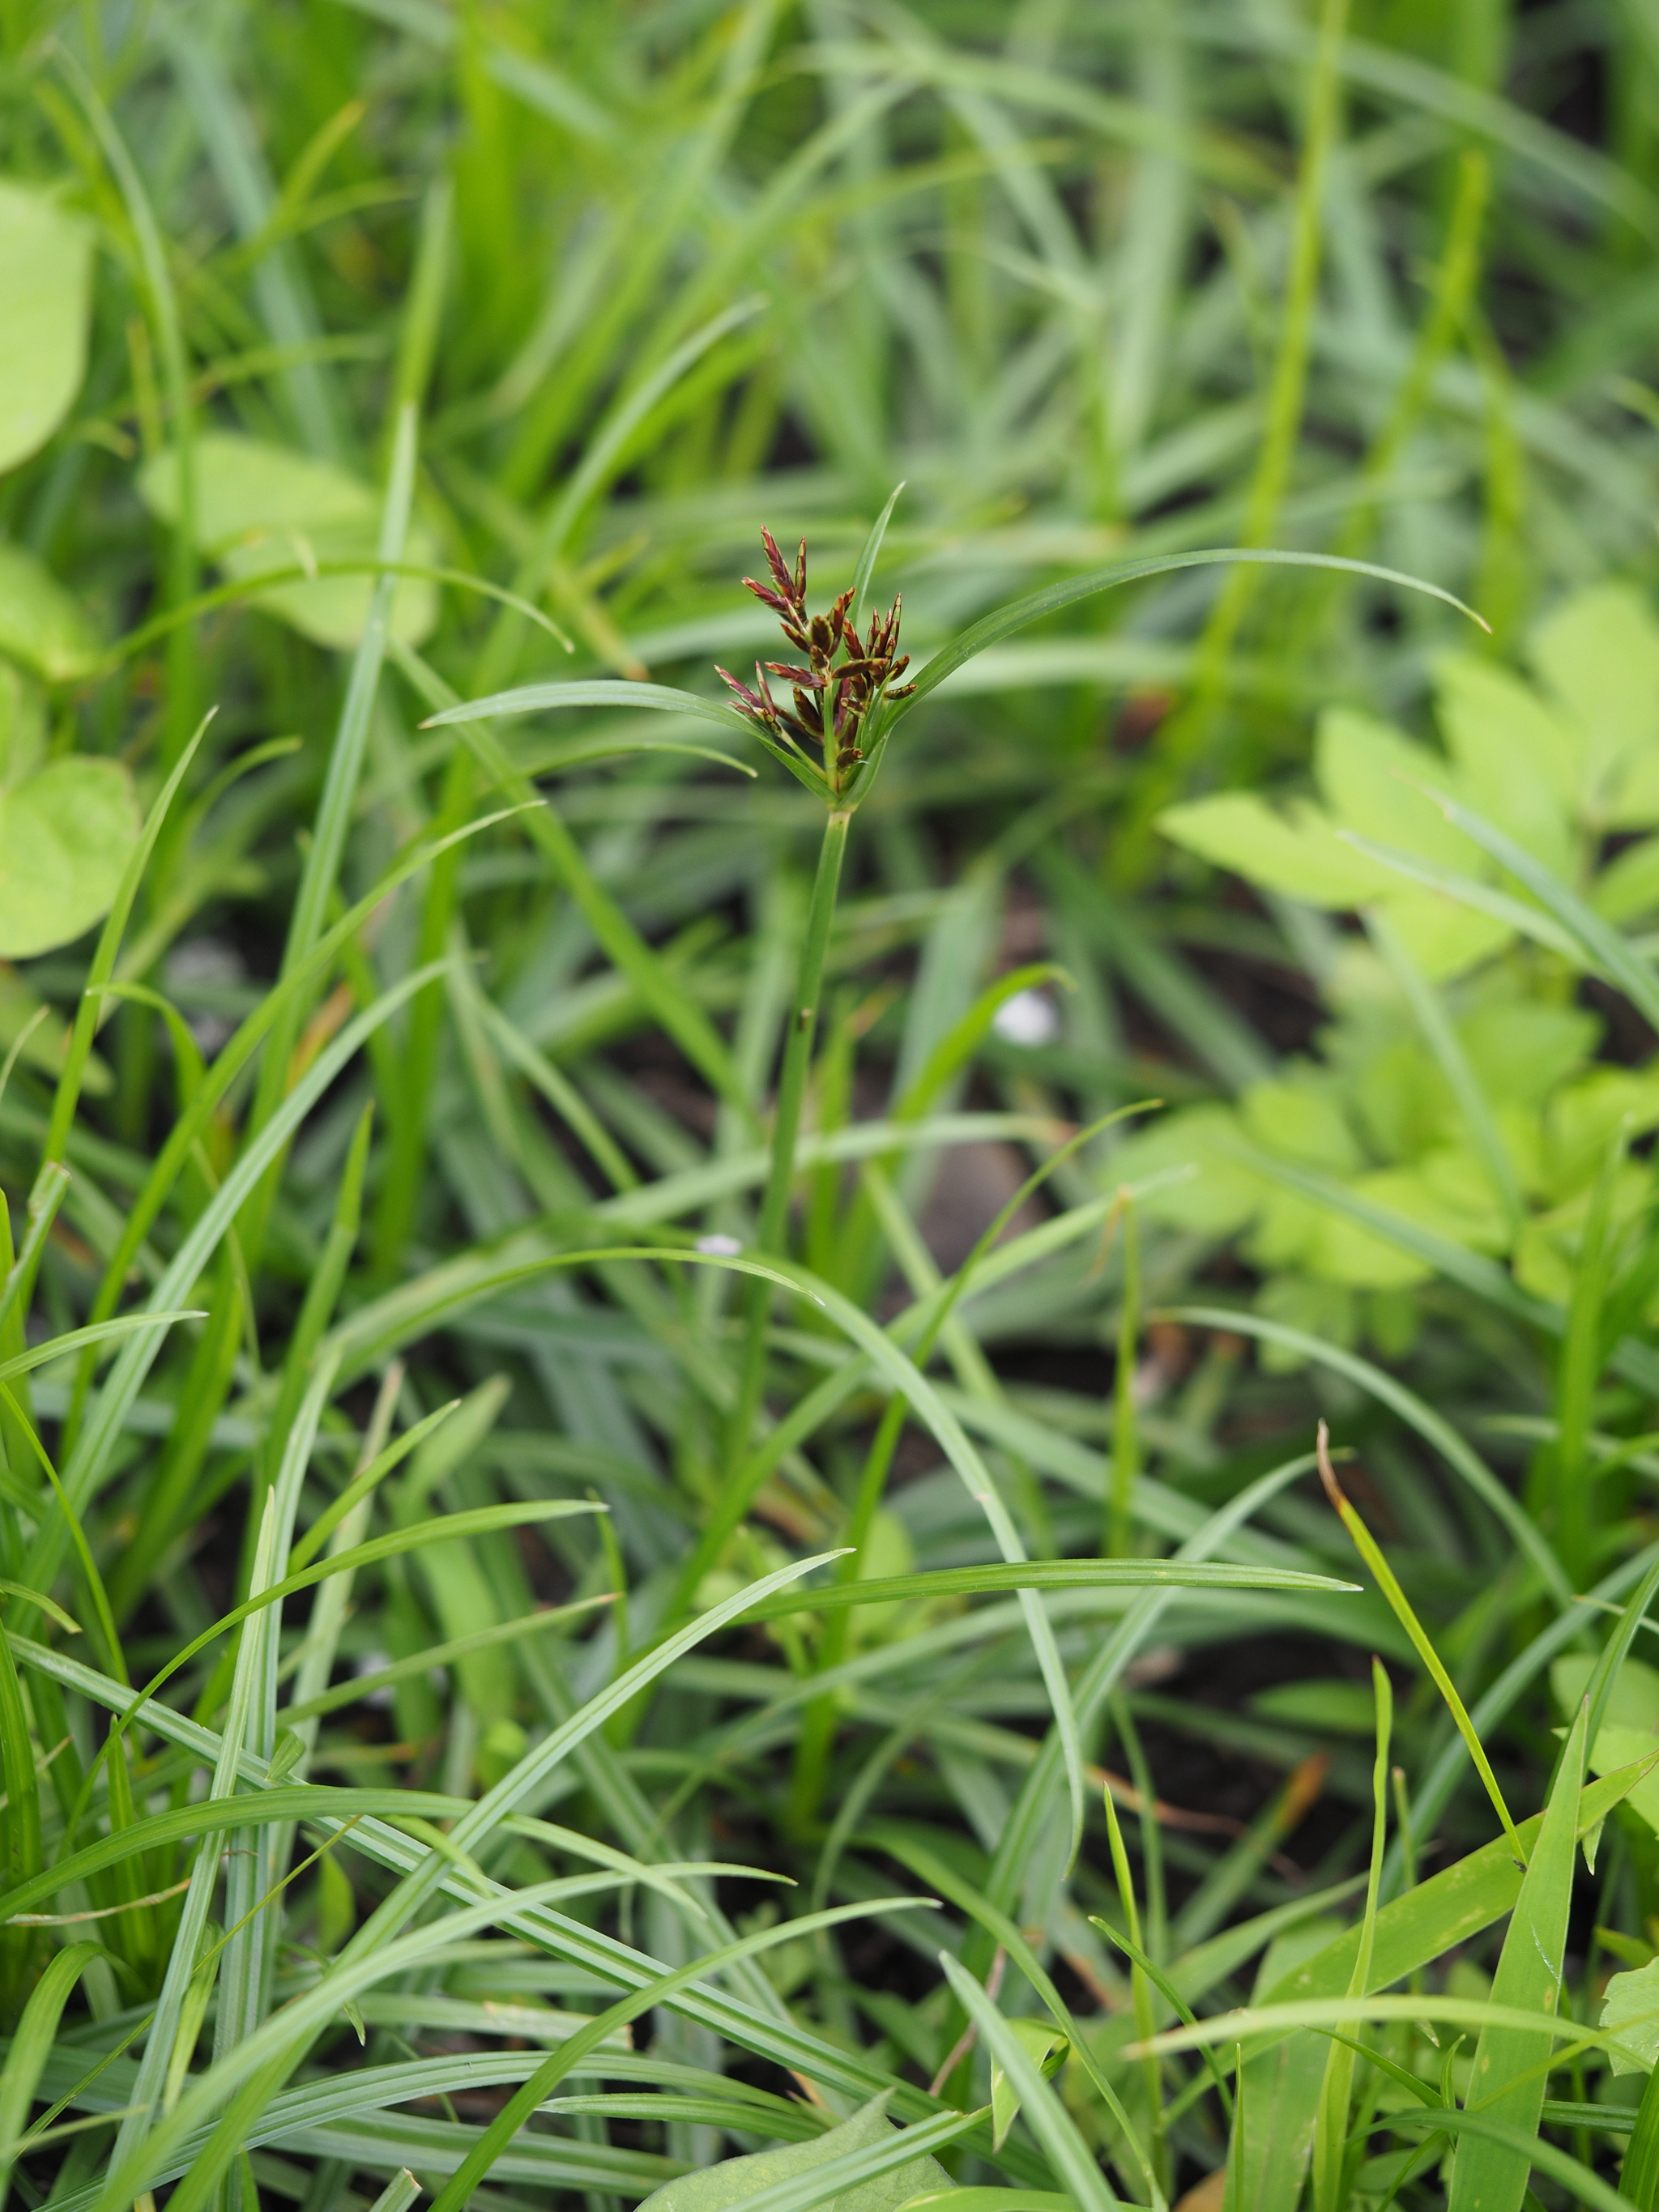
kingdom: Plantae
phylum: Tracheophyta
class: Liliopsida
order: Poales
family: Cyperaceae
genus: Cyperus
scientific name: Cyperus rotundus
